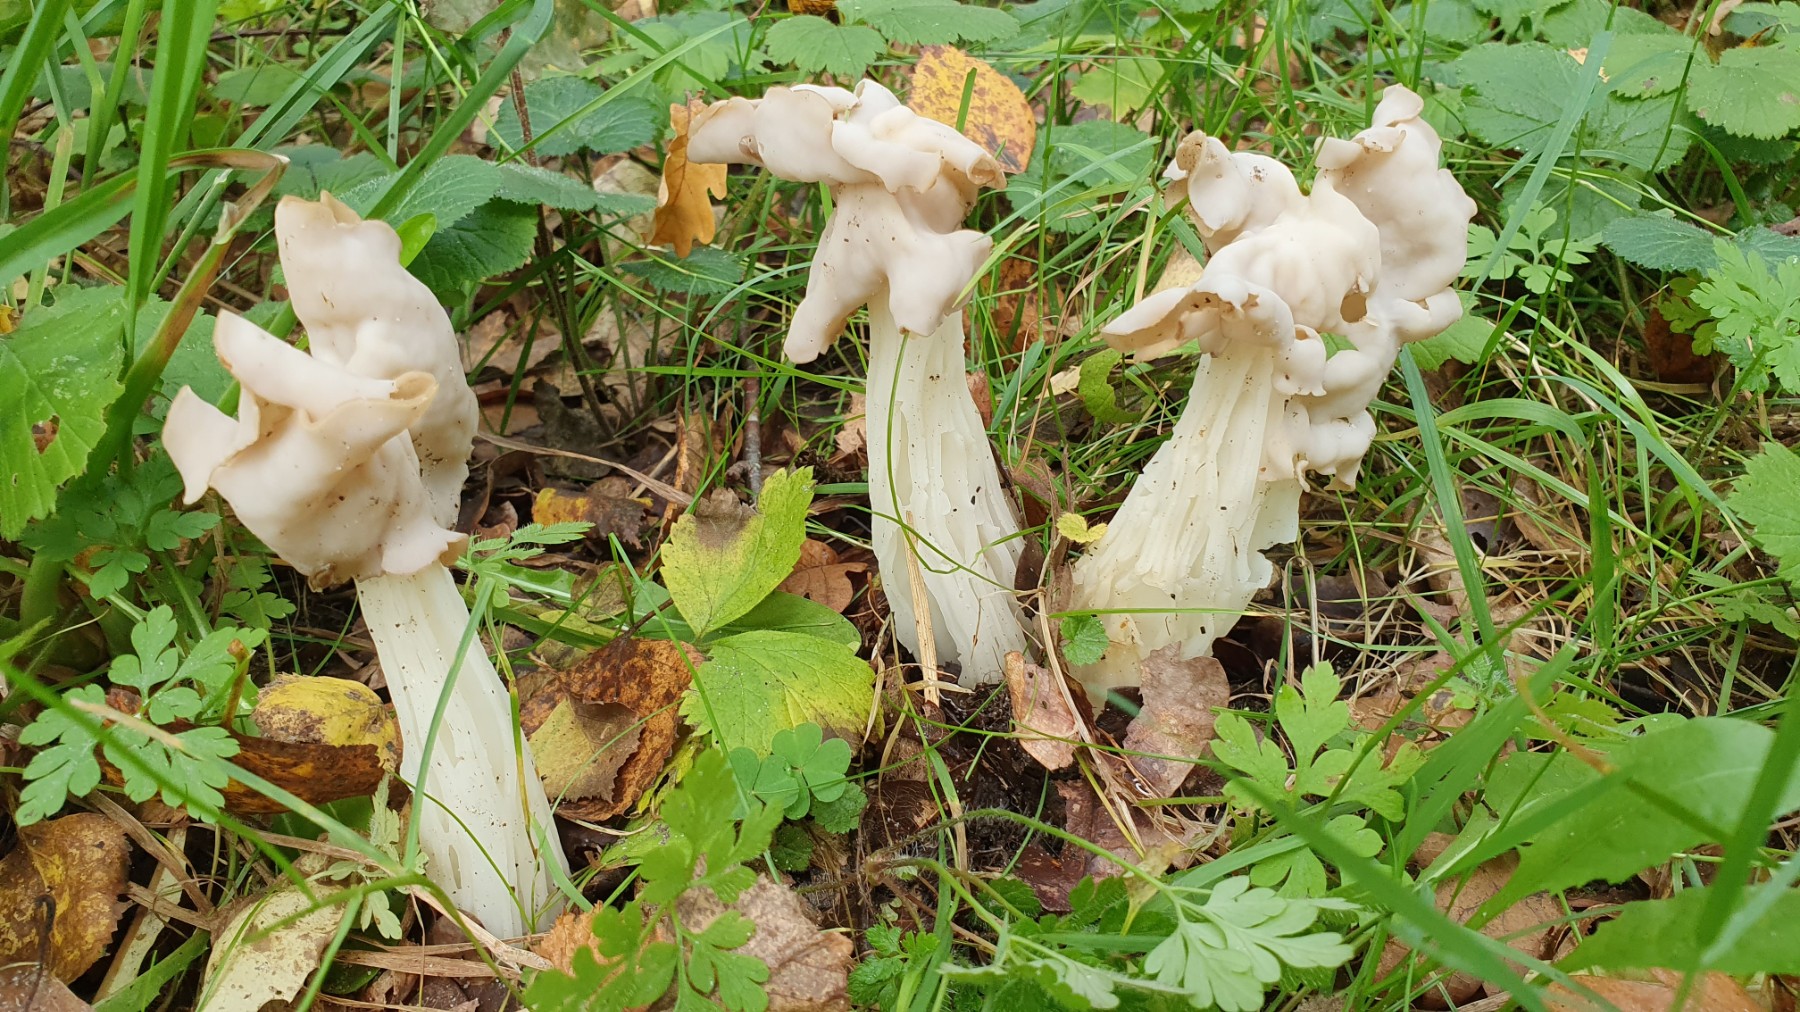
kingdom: Fungi
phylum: Ascomycota
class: Pezizomycetes
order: Pezizales
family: Helvellaceae
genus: Helvella
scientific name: Helvella crispa
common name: kruset foldhat
